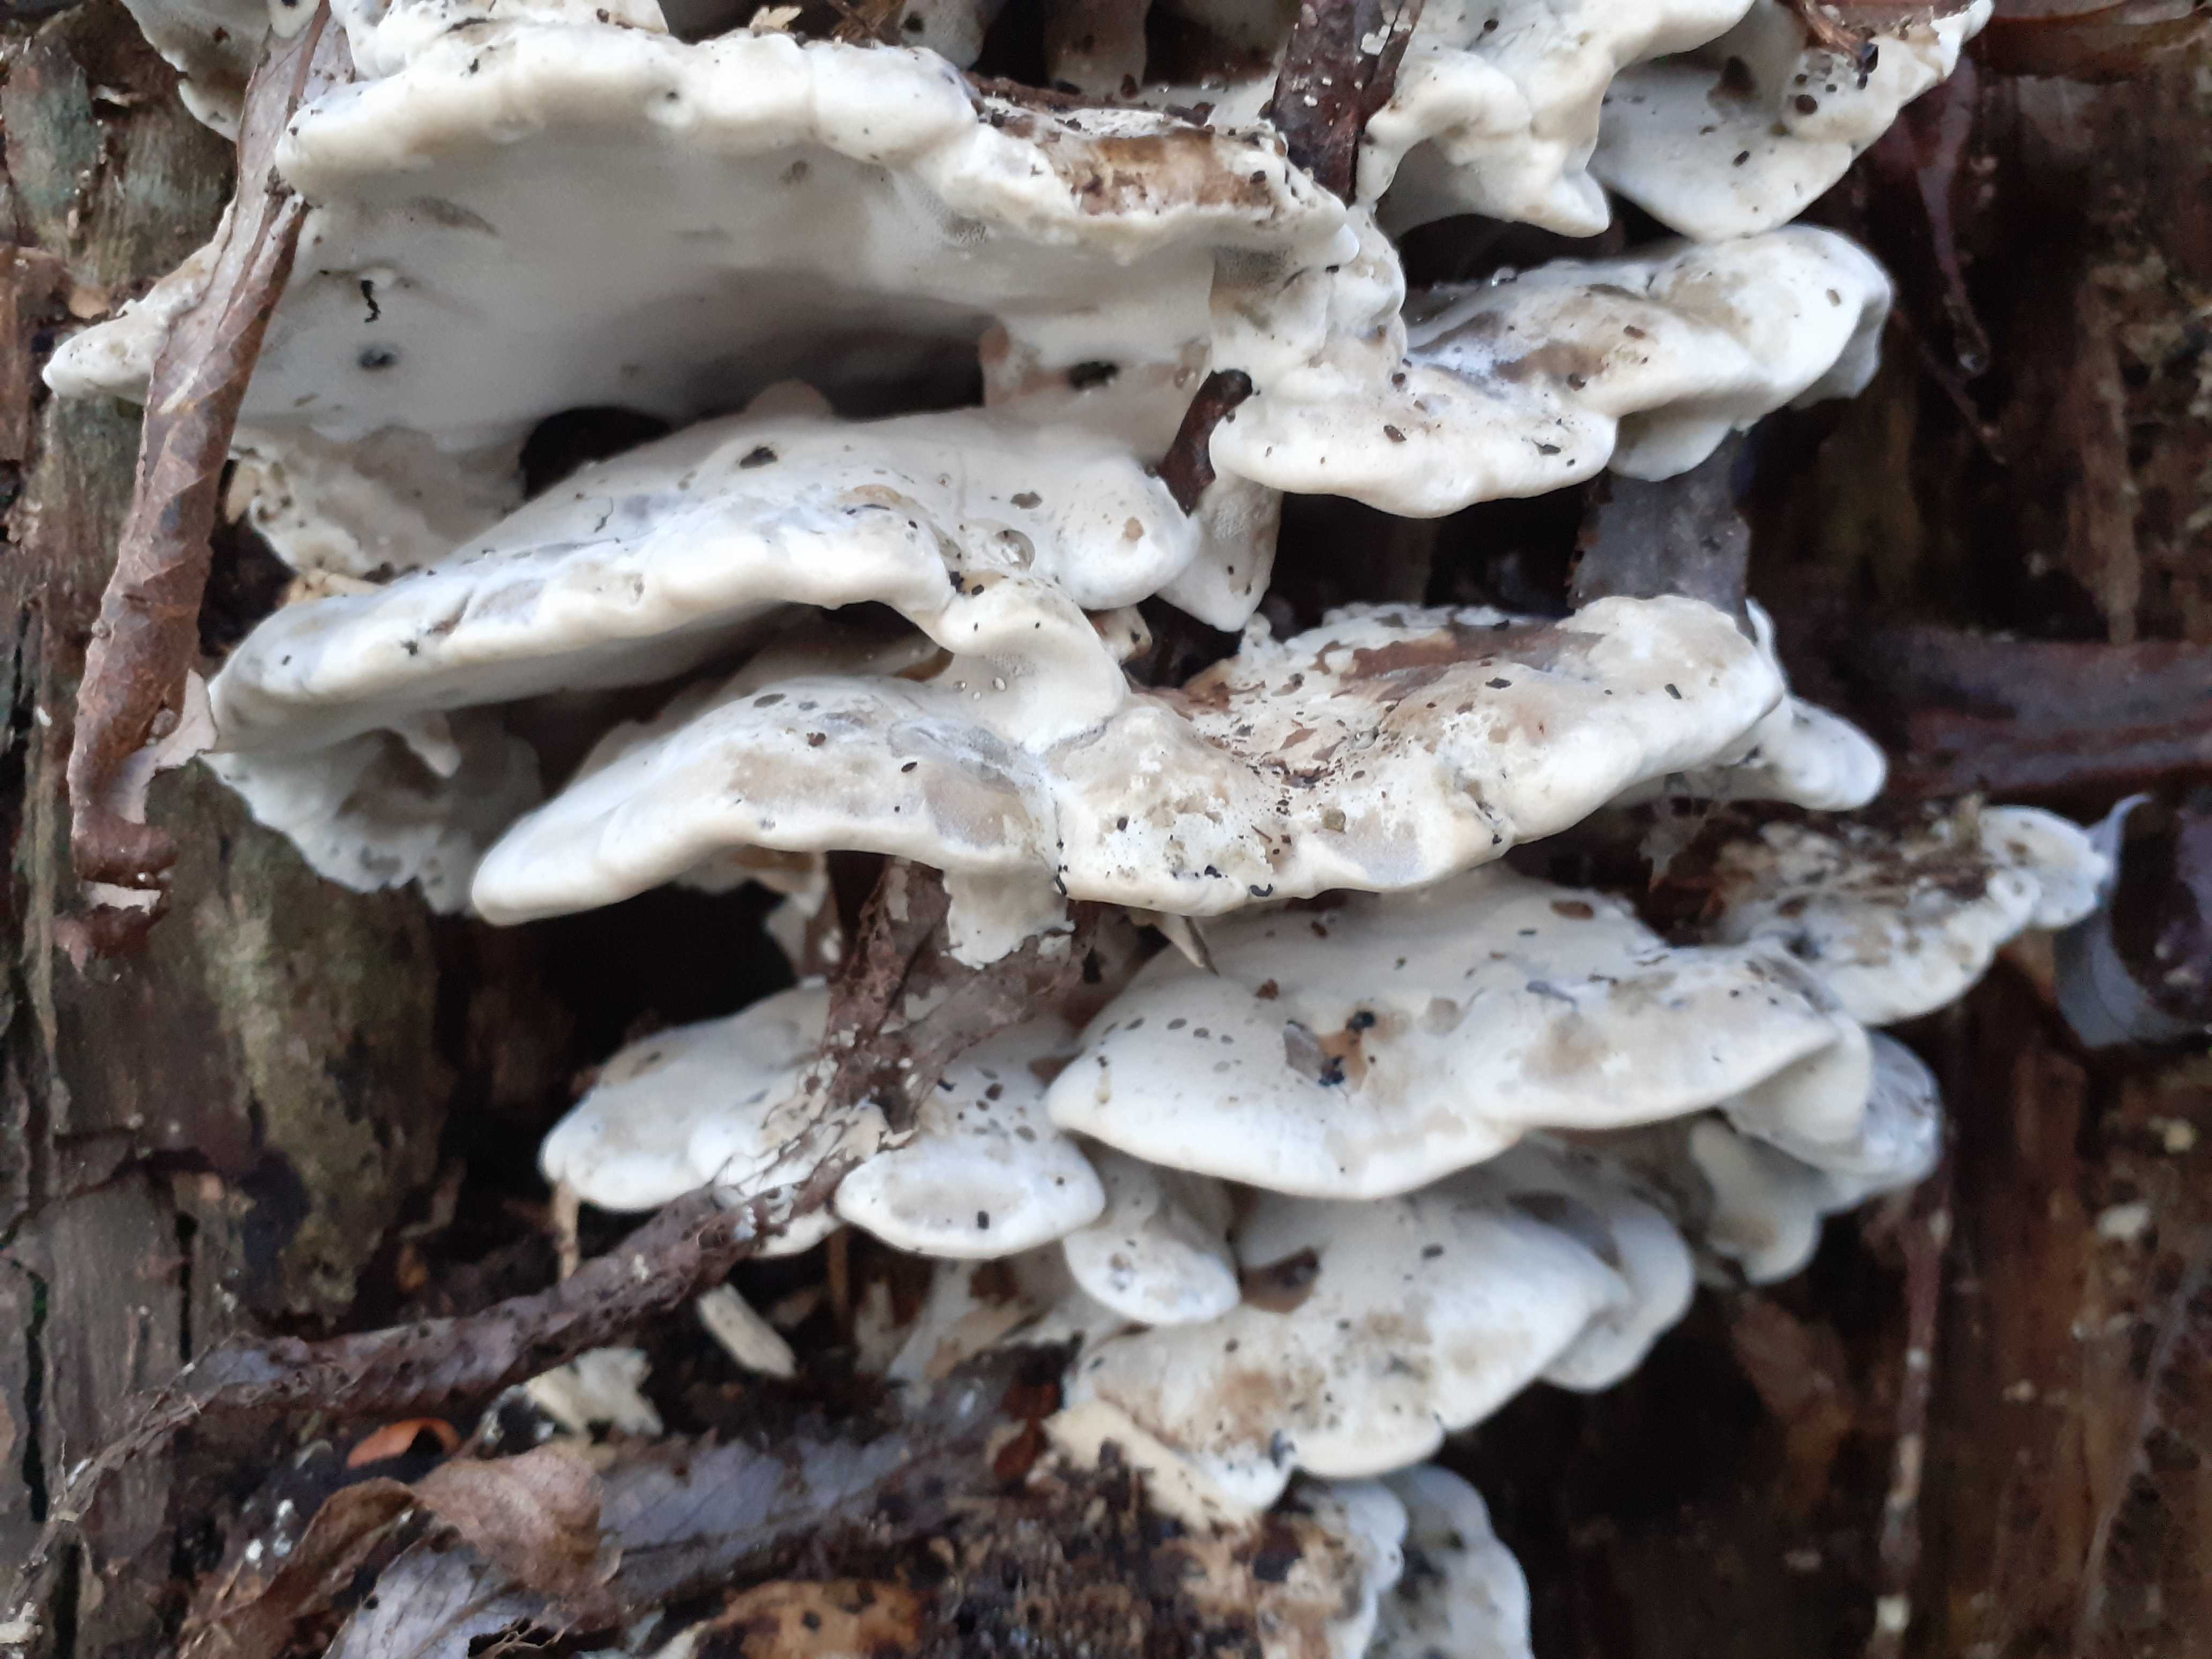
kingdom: Fungi
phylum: Basidiomycota
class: Agaricomycetes
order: Polyporales
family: Phanerochaetaceae
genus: Bjerkandera
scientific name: Bjerkandera fumosa
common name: grågul sodporesvamp
